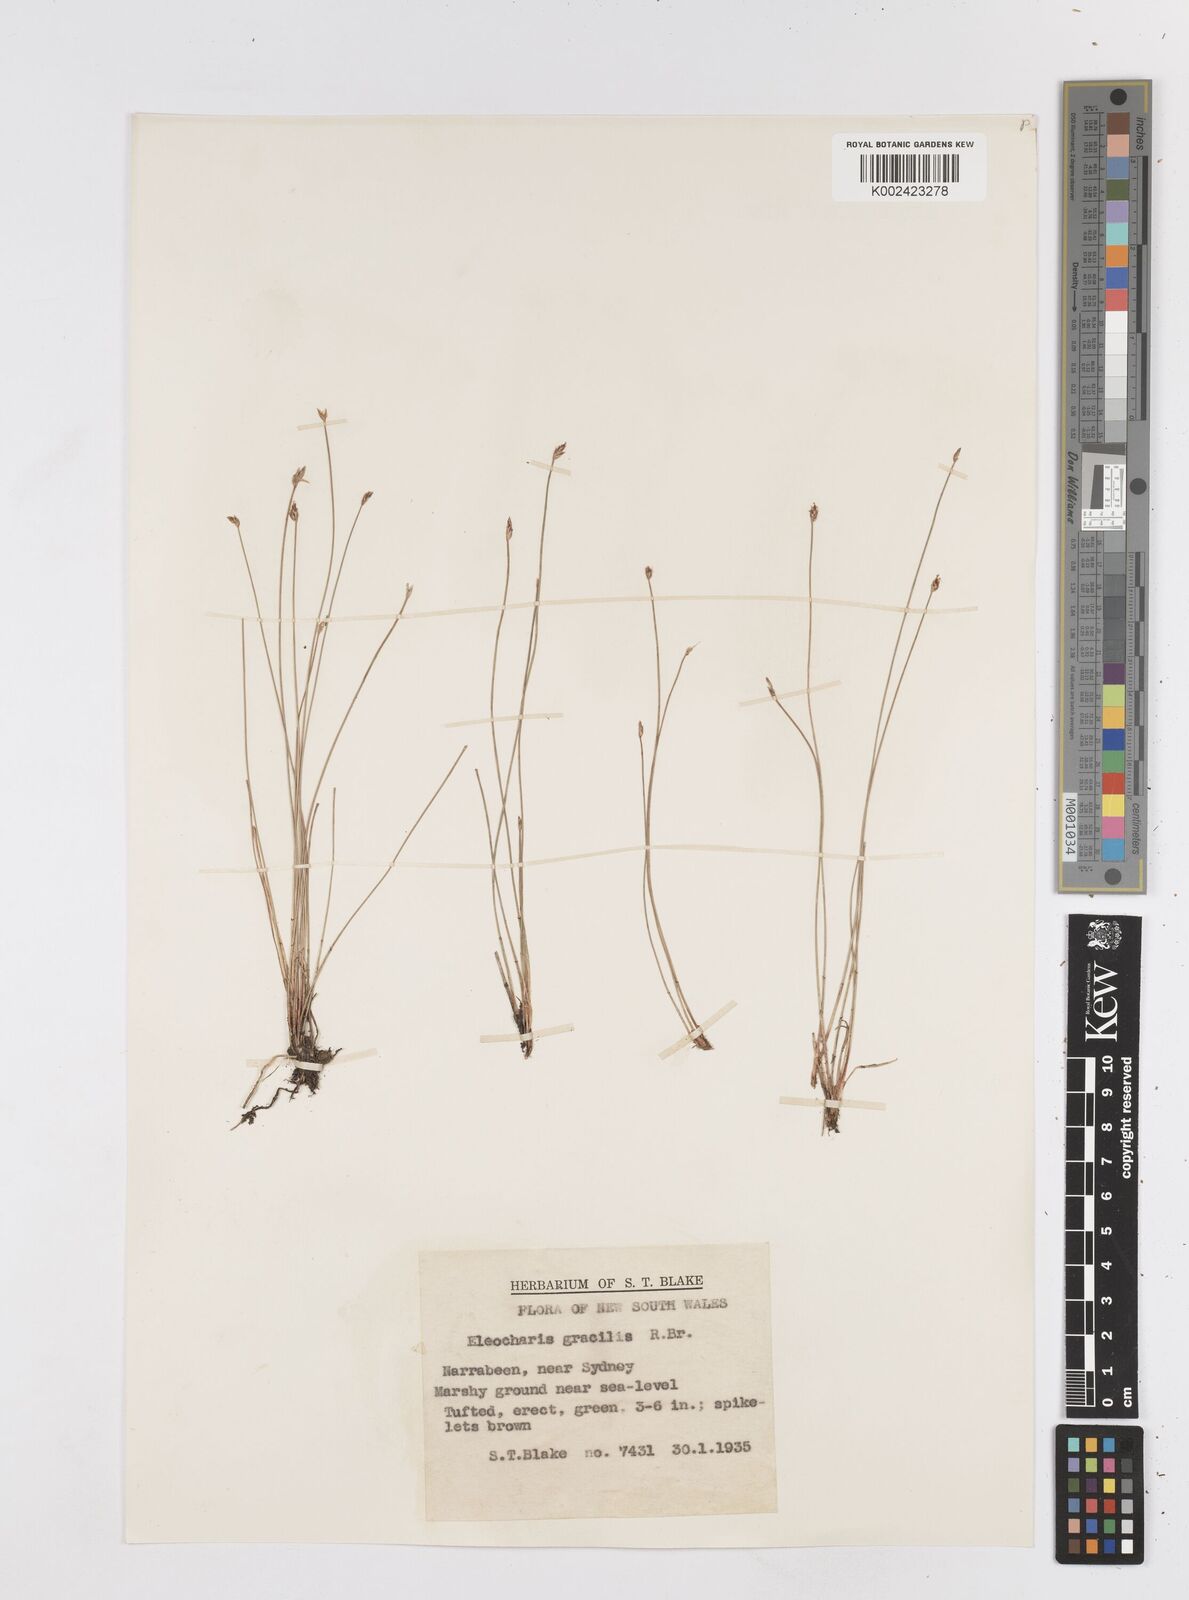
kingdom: Plantae
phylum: Tracheophyta
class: Liliopsida
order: Poales
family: Cyperaceae
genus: Eleocharis
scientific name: Eleocharis multicaulis
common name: Many-stalked spike-rush
